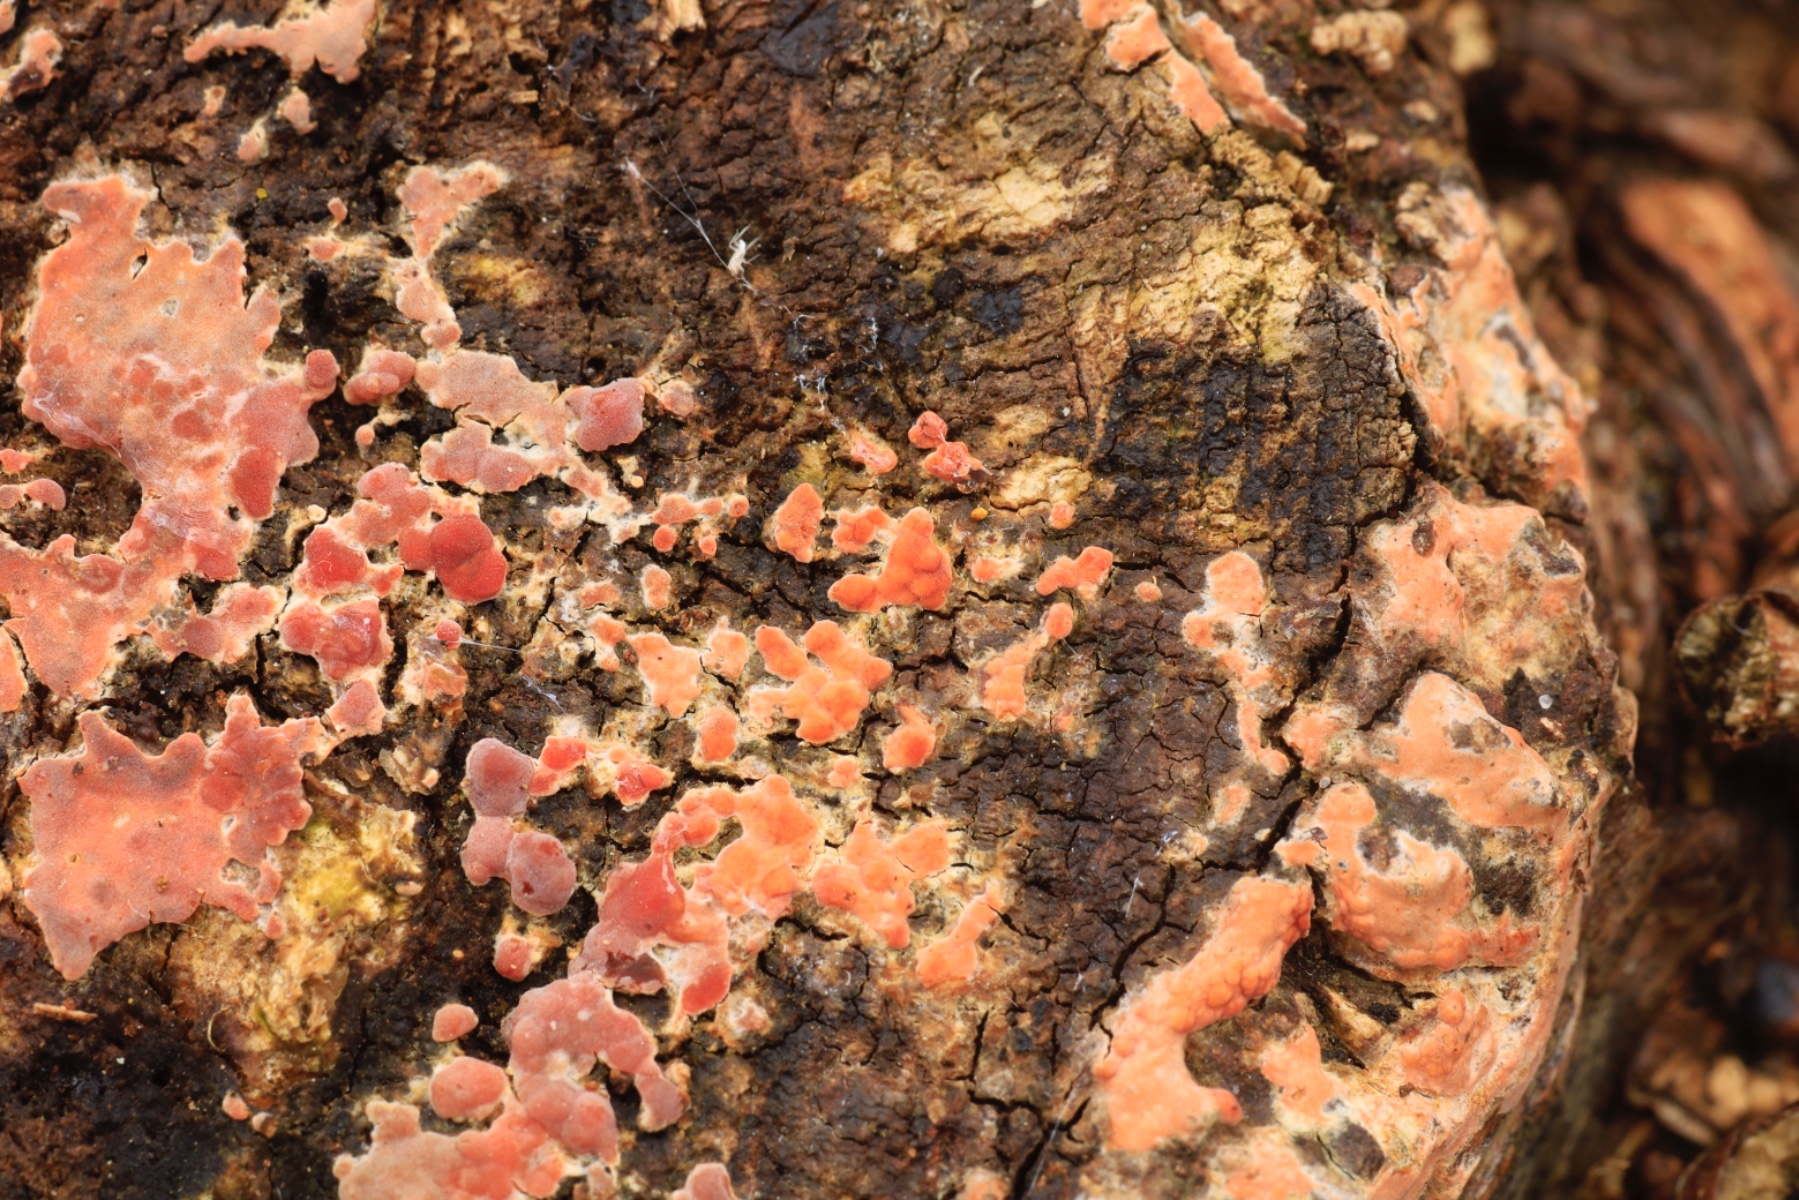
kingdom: Fungi
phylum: Basidiomycota
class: Agaricomycetes
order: Russulales
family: Peniophoraceae
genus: Peniophora
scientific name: Peniophora incarnata
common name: laksefarvet voksskind
